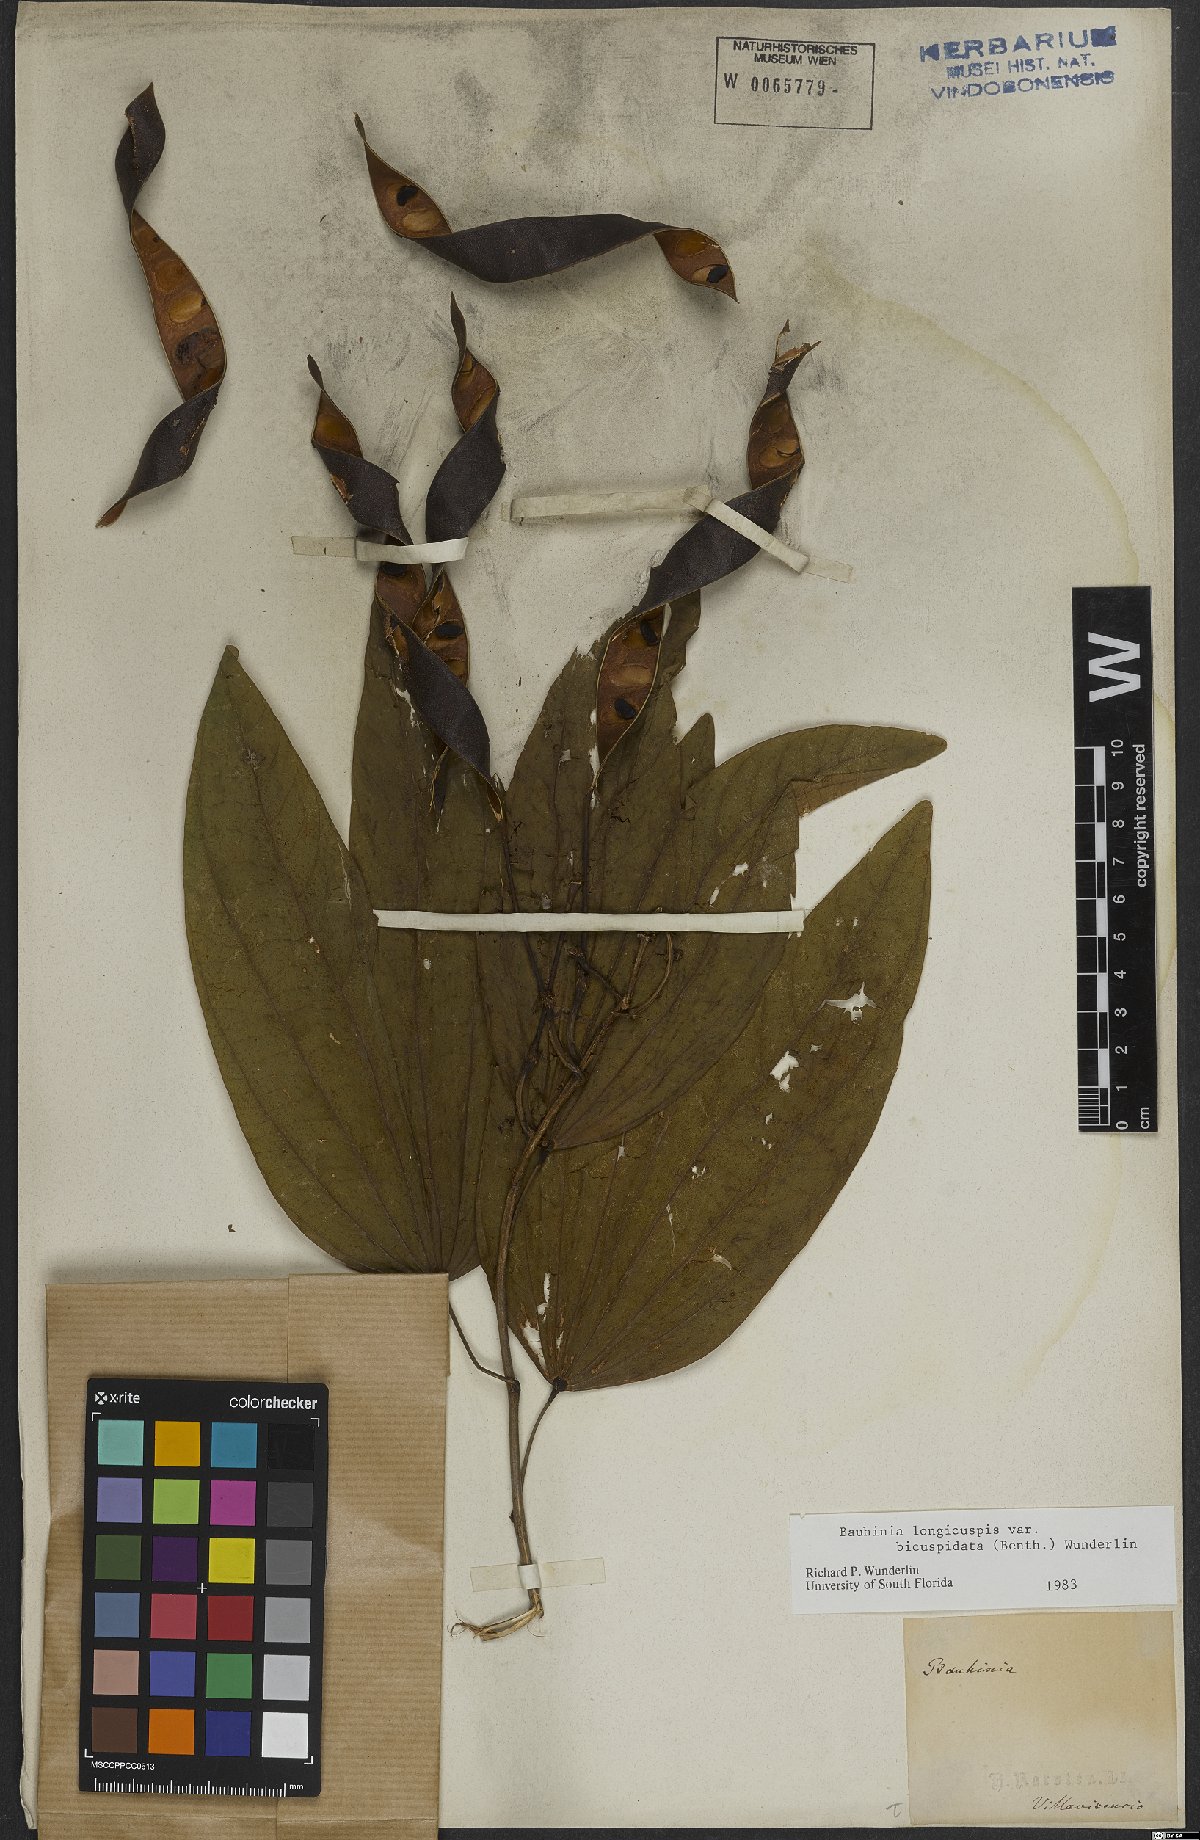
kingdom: Plantae
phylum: Tracheophyta
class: Magnoliopsida
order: Fabales
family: Fabaceae
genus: Bauhinia
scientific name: Bauhinia longicuspis
